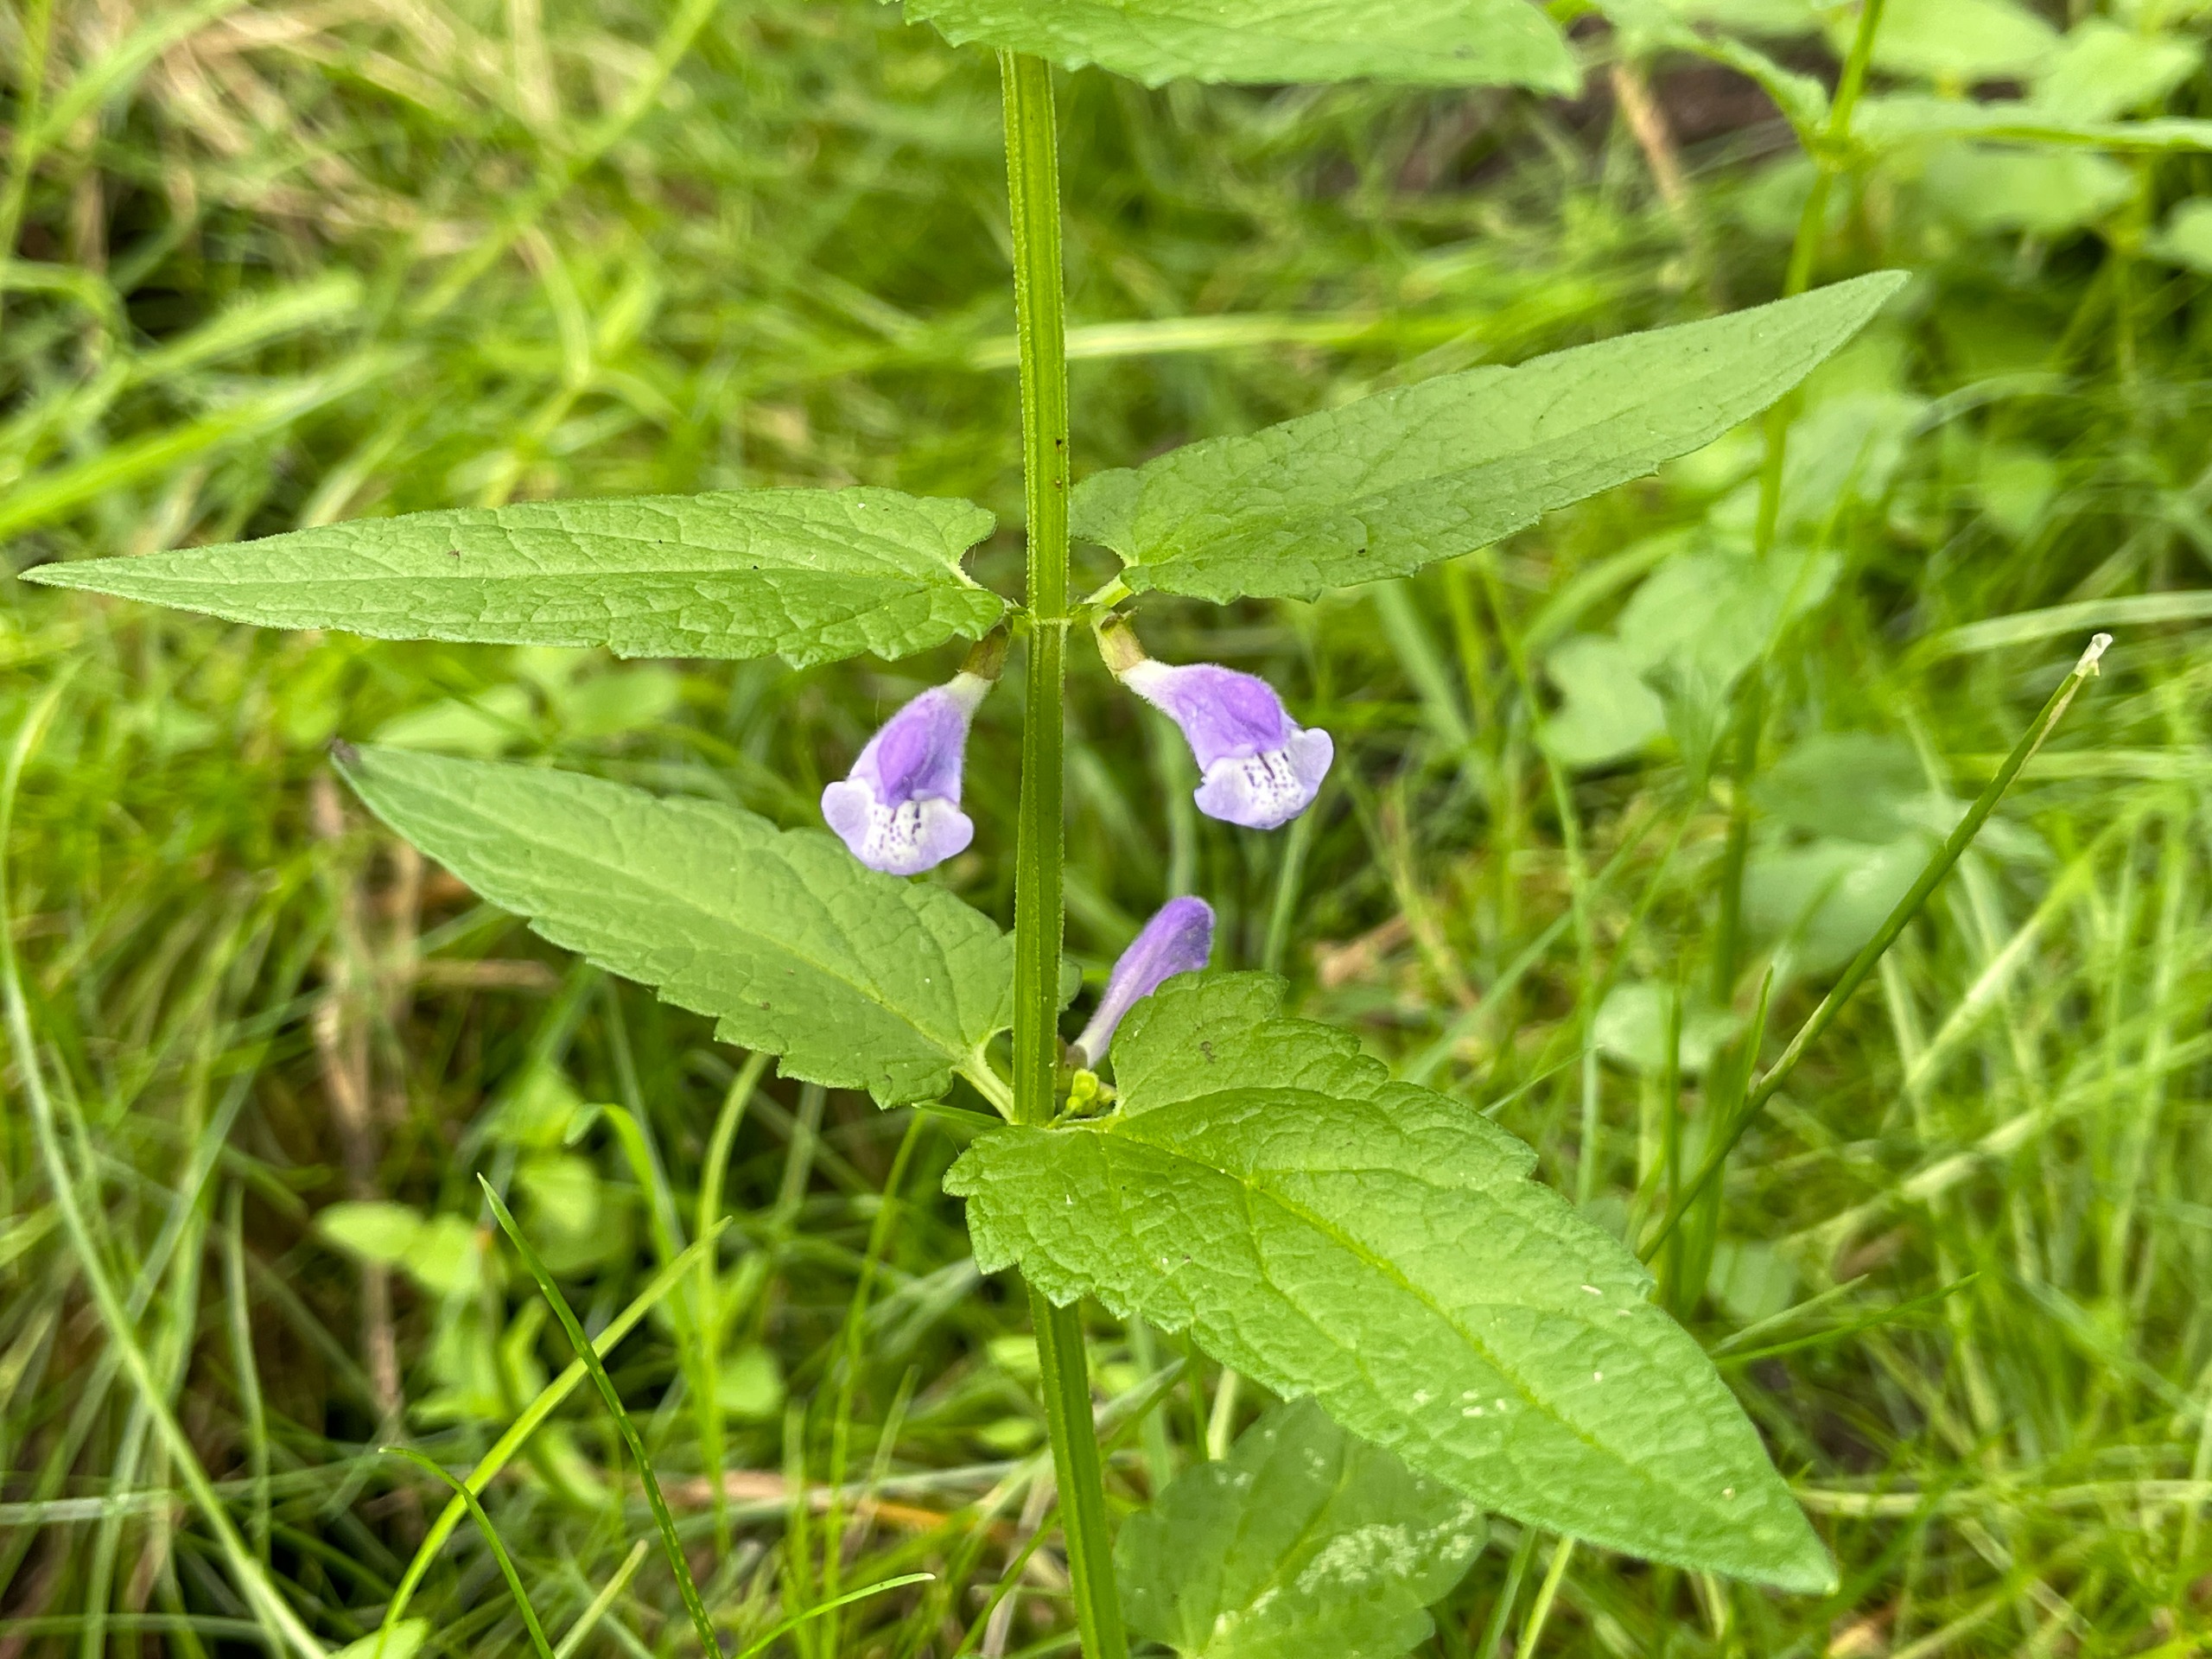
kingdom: Plantae
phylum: Tracheophyta
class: Magnoliopsida
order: Lamiales
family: Lamiaceae
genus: Scutellaria
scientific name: Scutellaria galericulata
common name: Almindelig skjolddrager
